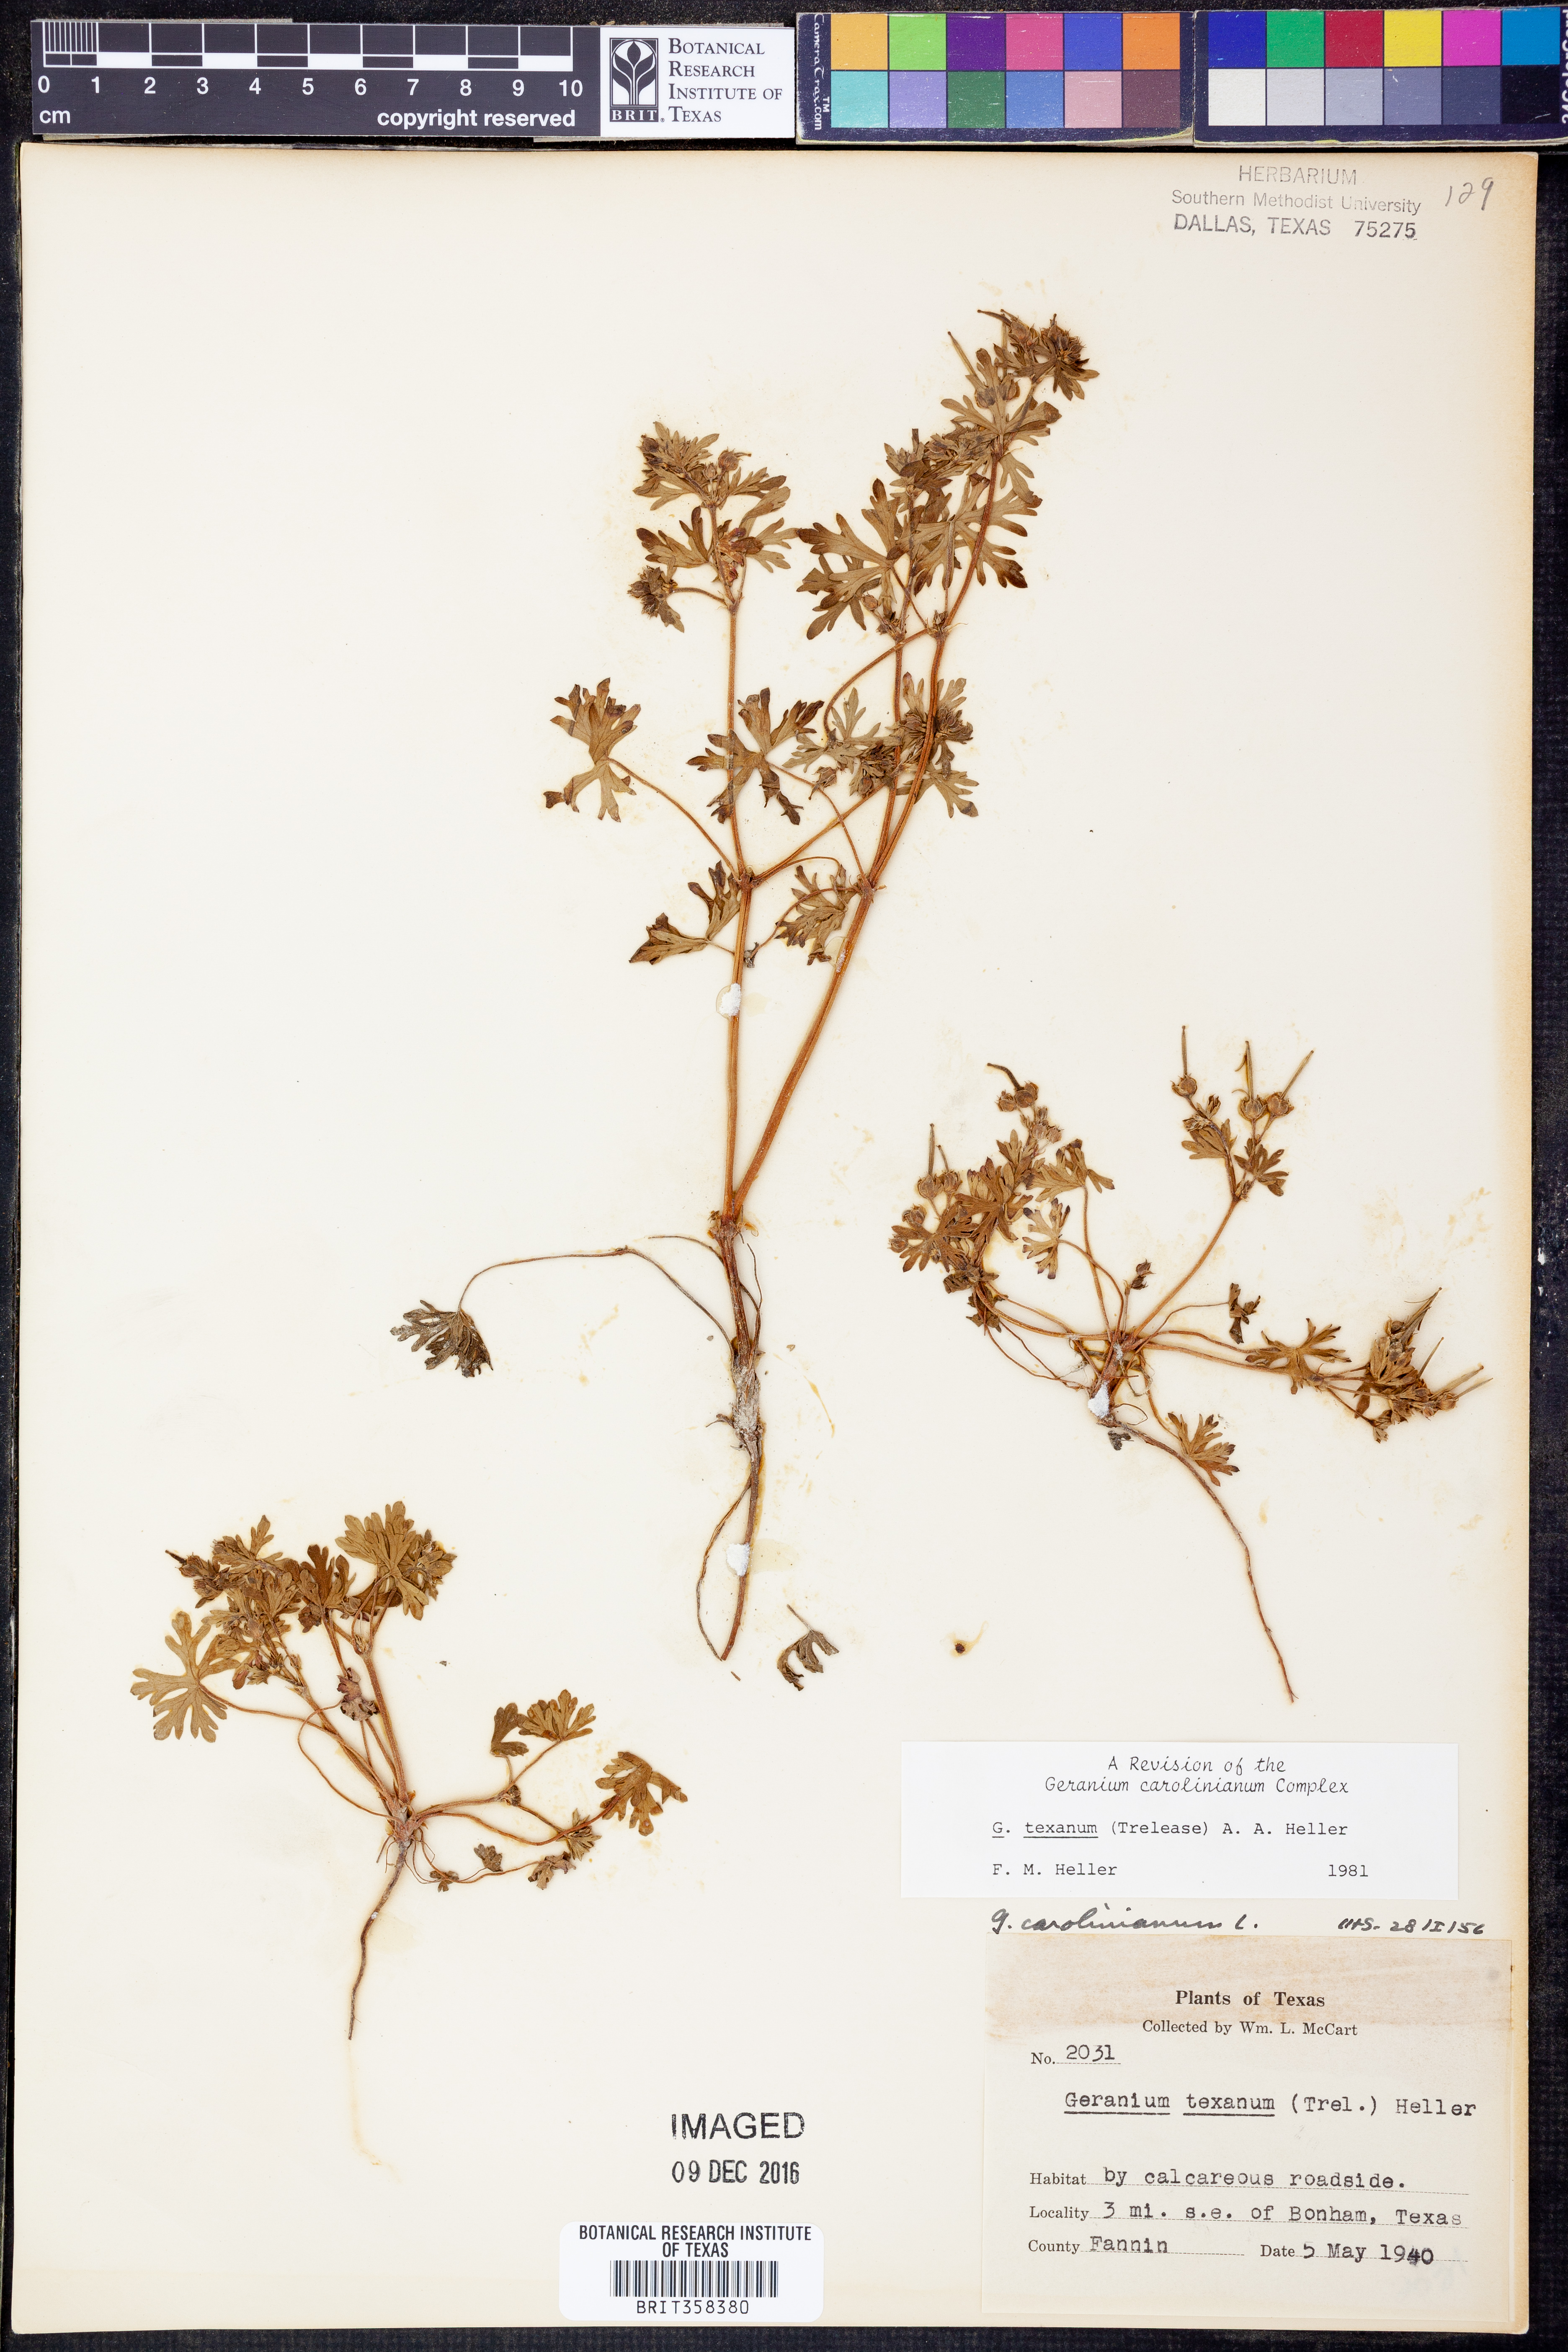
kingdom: Plantae
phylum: Tracheophyta
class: Magnoliopsida
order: Geraniales
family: Geraniaceae
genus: Geranium
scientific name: Geranium texanum
